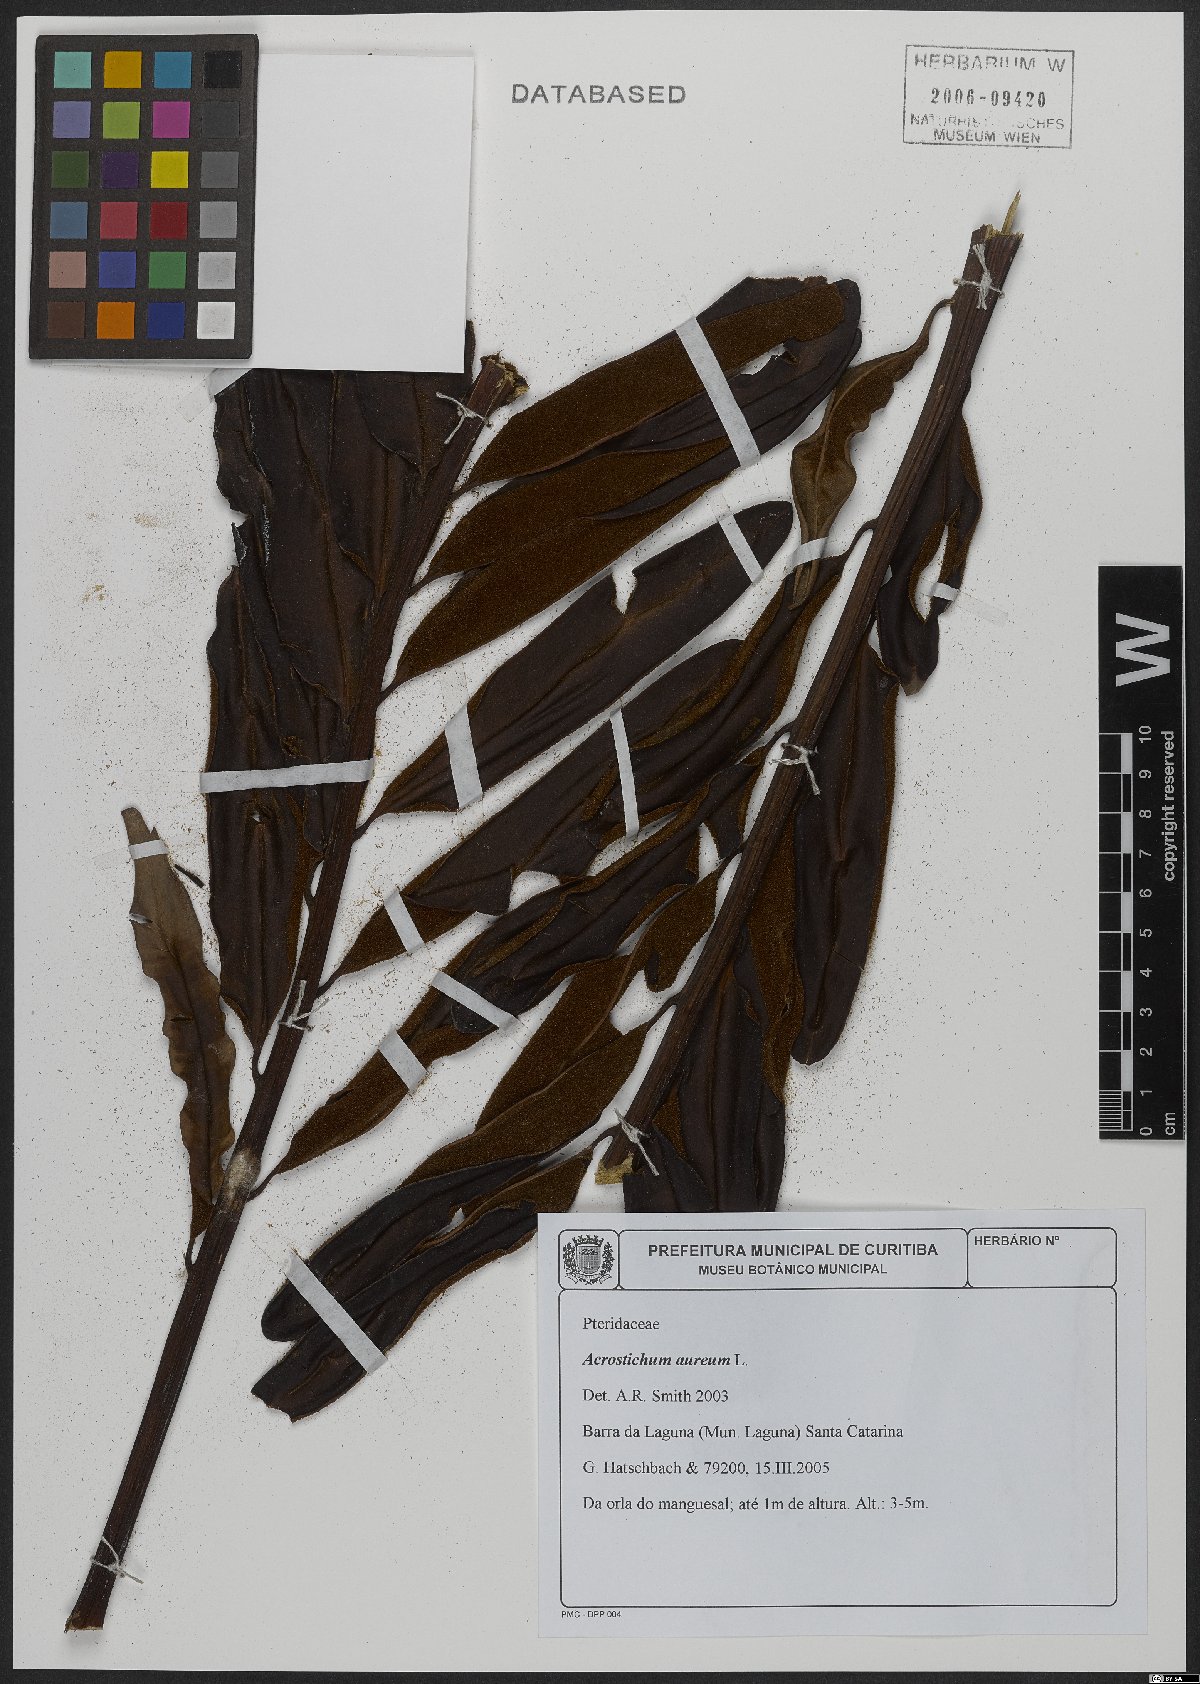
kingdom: Plantae
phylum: Tracheophyta
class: Polypodiopsida
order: Polypodiales
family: Pteridaceae
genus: Acrostichum
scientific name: Acrostichum aureum
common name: Leather fern
